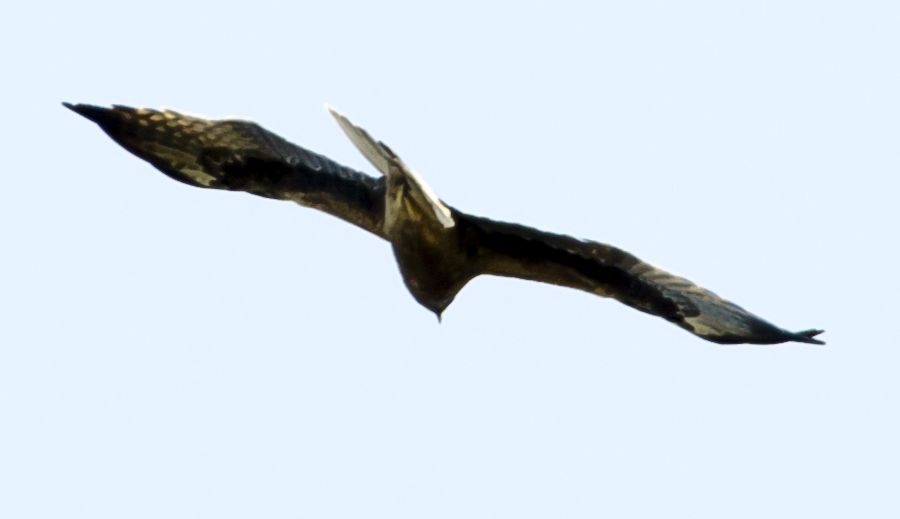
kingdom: Animalia
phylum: Chordata
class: Aves
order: Accipitriformes
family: Accipitridae
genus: Hieraaetus
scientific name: Hieraaetus pennatus
